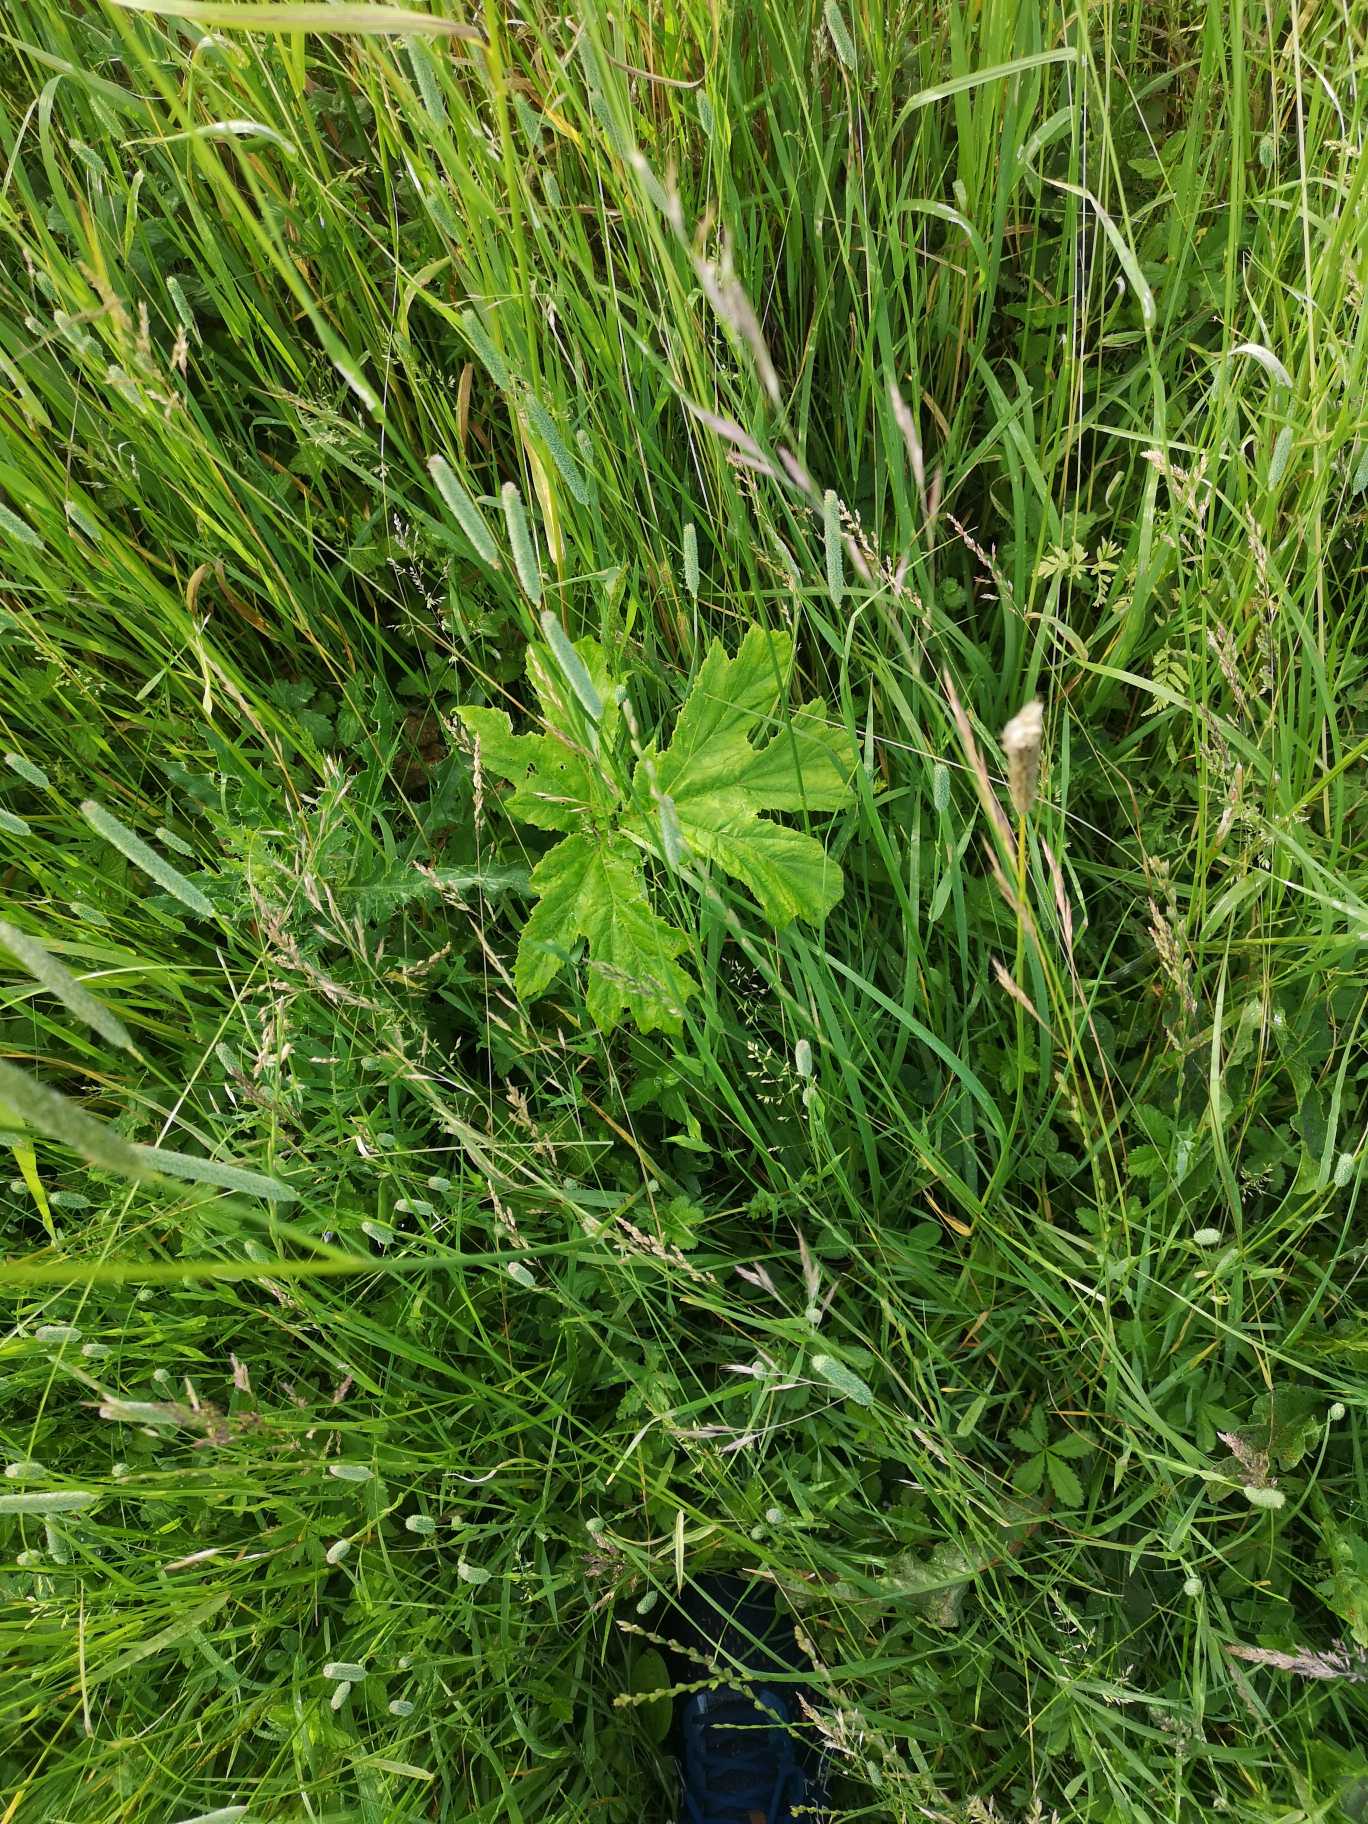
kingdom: Plantae
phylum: Tracheophyta
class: Magnoliopsida
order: Apiales
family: Apiaceae
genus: Heracleum
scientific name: Heracleum
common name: Bjørnekloslægten
